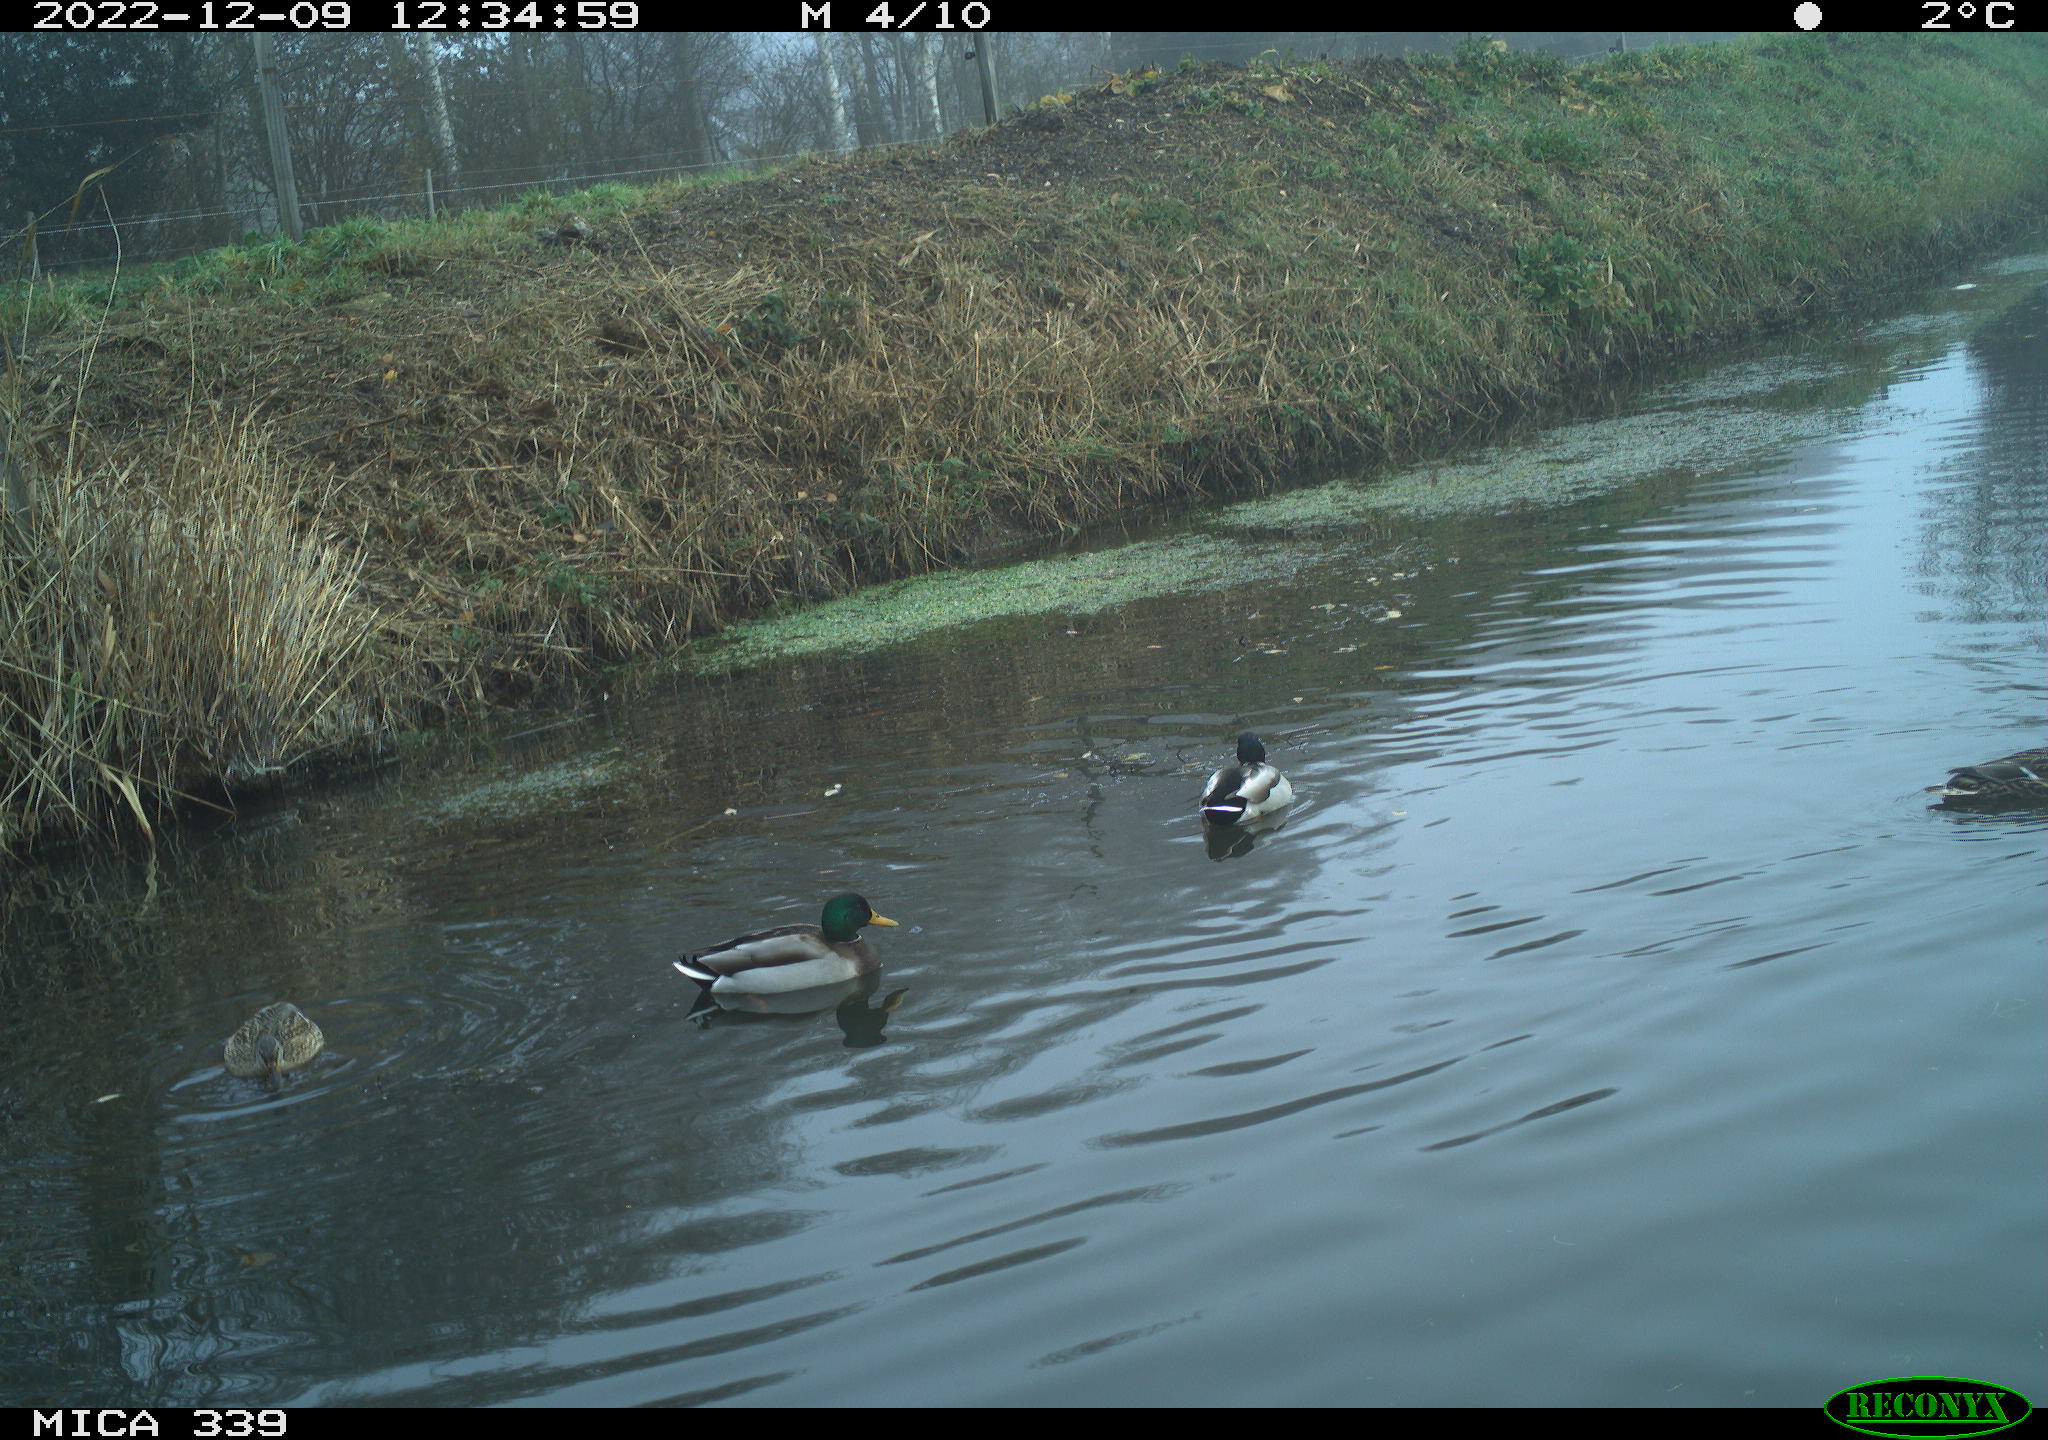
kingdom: Animalia
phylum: Chordata
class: Aves
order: Anseriformes
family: Anatidae
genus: Anas
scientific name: Anas
